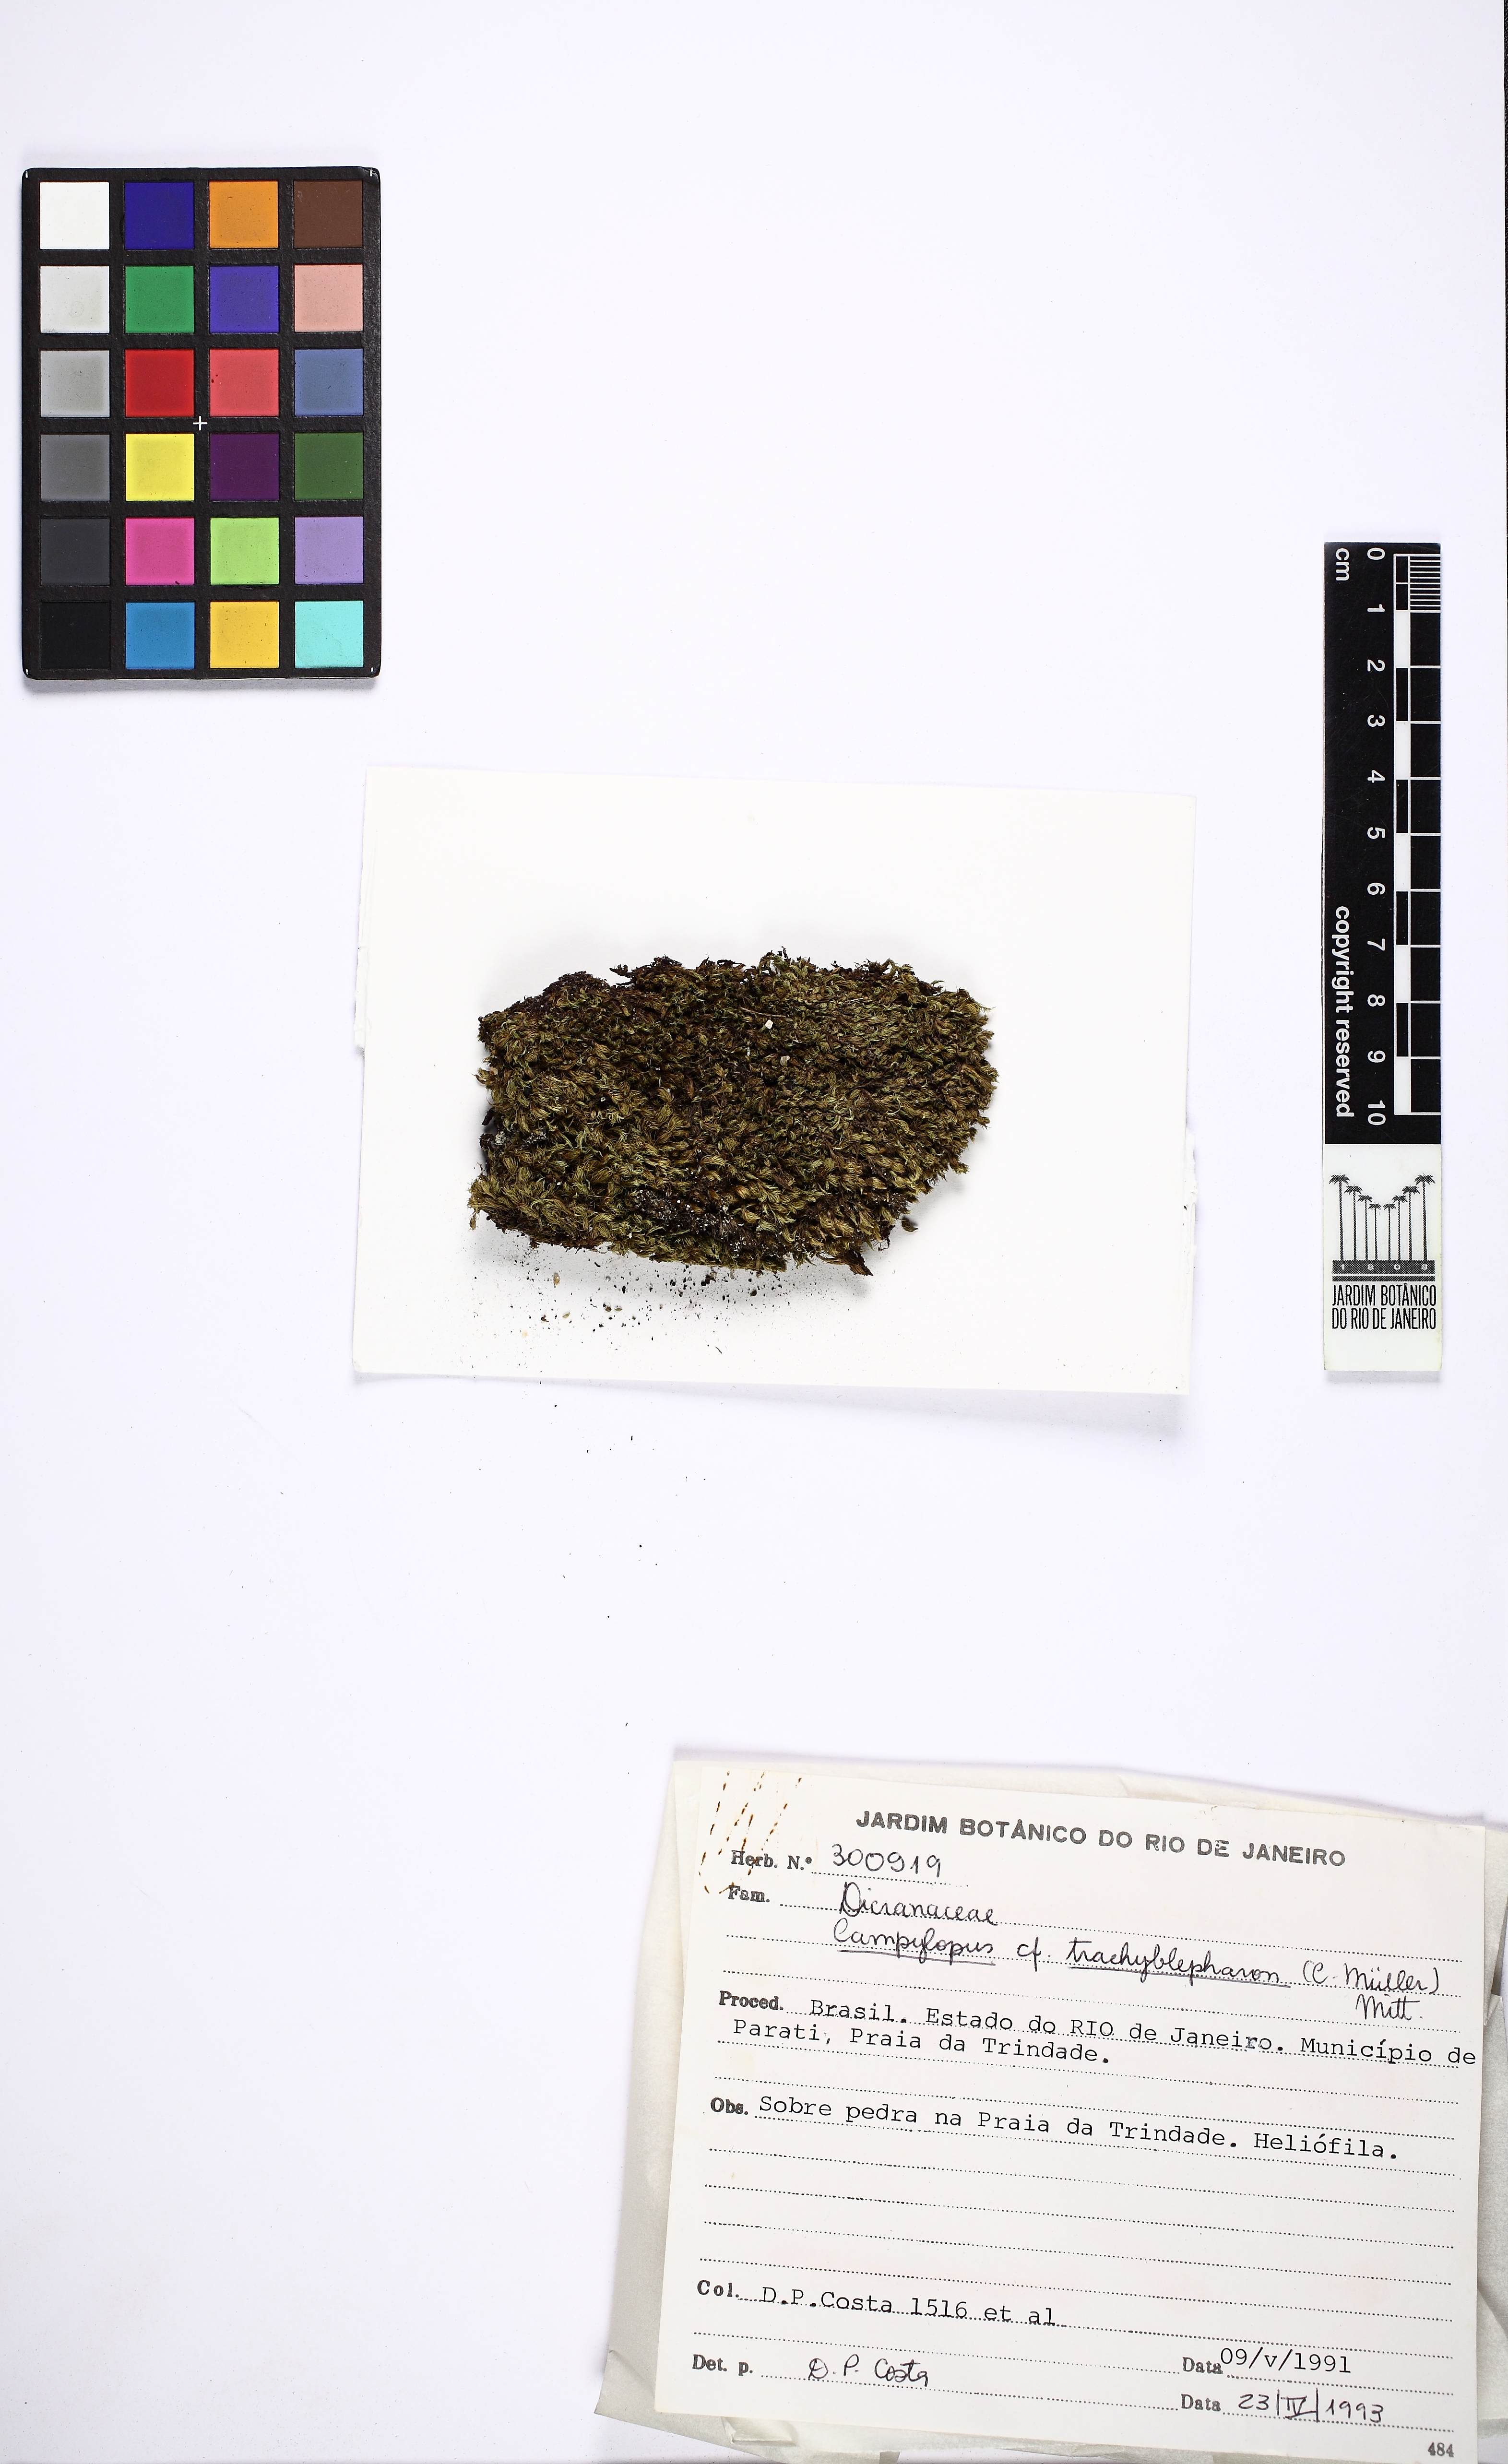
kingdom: Plantae
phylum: Bryophyta
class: Bryopsida
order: Dicranales
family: Leucobryaceae
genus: Campylopus
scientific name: Campylopus trachyblepharon
